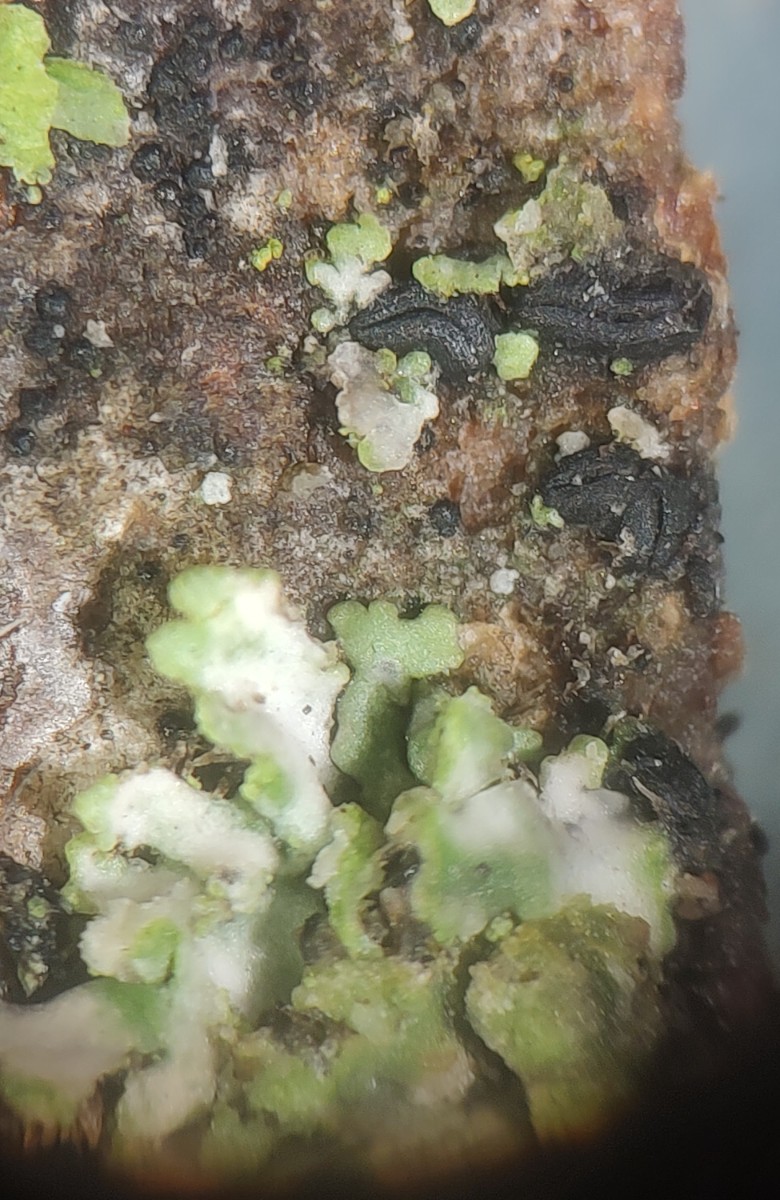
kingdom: Fungi
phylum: Ascomycota
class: Dothideomycetes
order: Hysteriales
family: Hysteriaceae
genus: Hysterium
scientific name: Hysterium acuminatum
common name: almindelig kulmund
